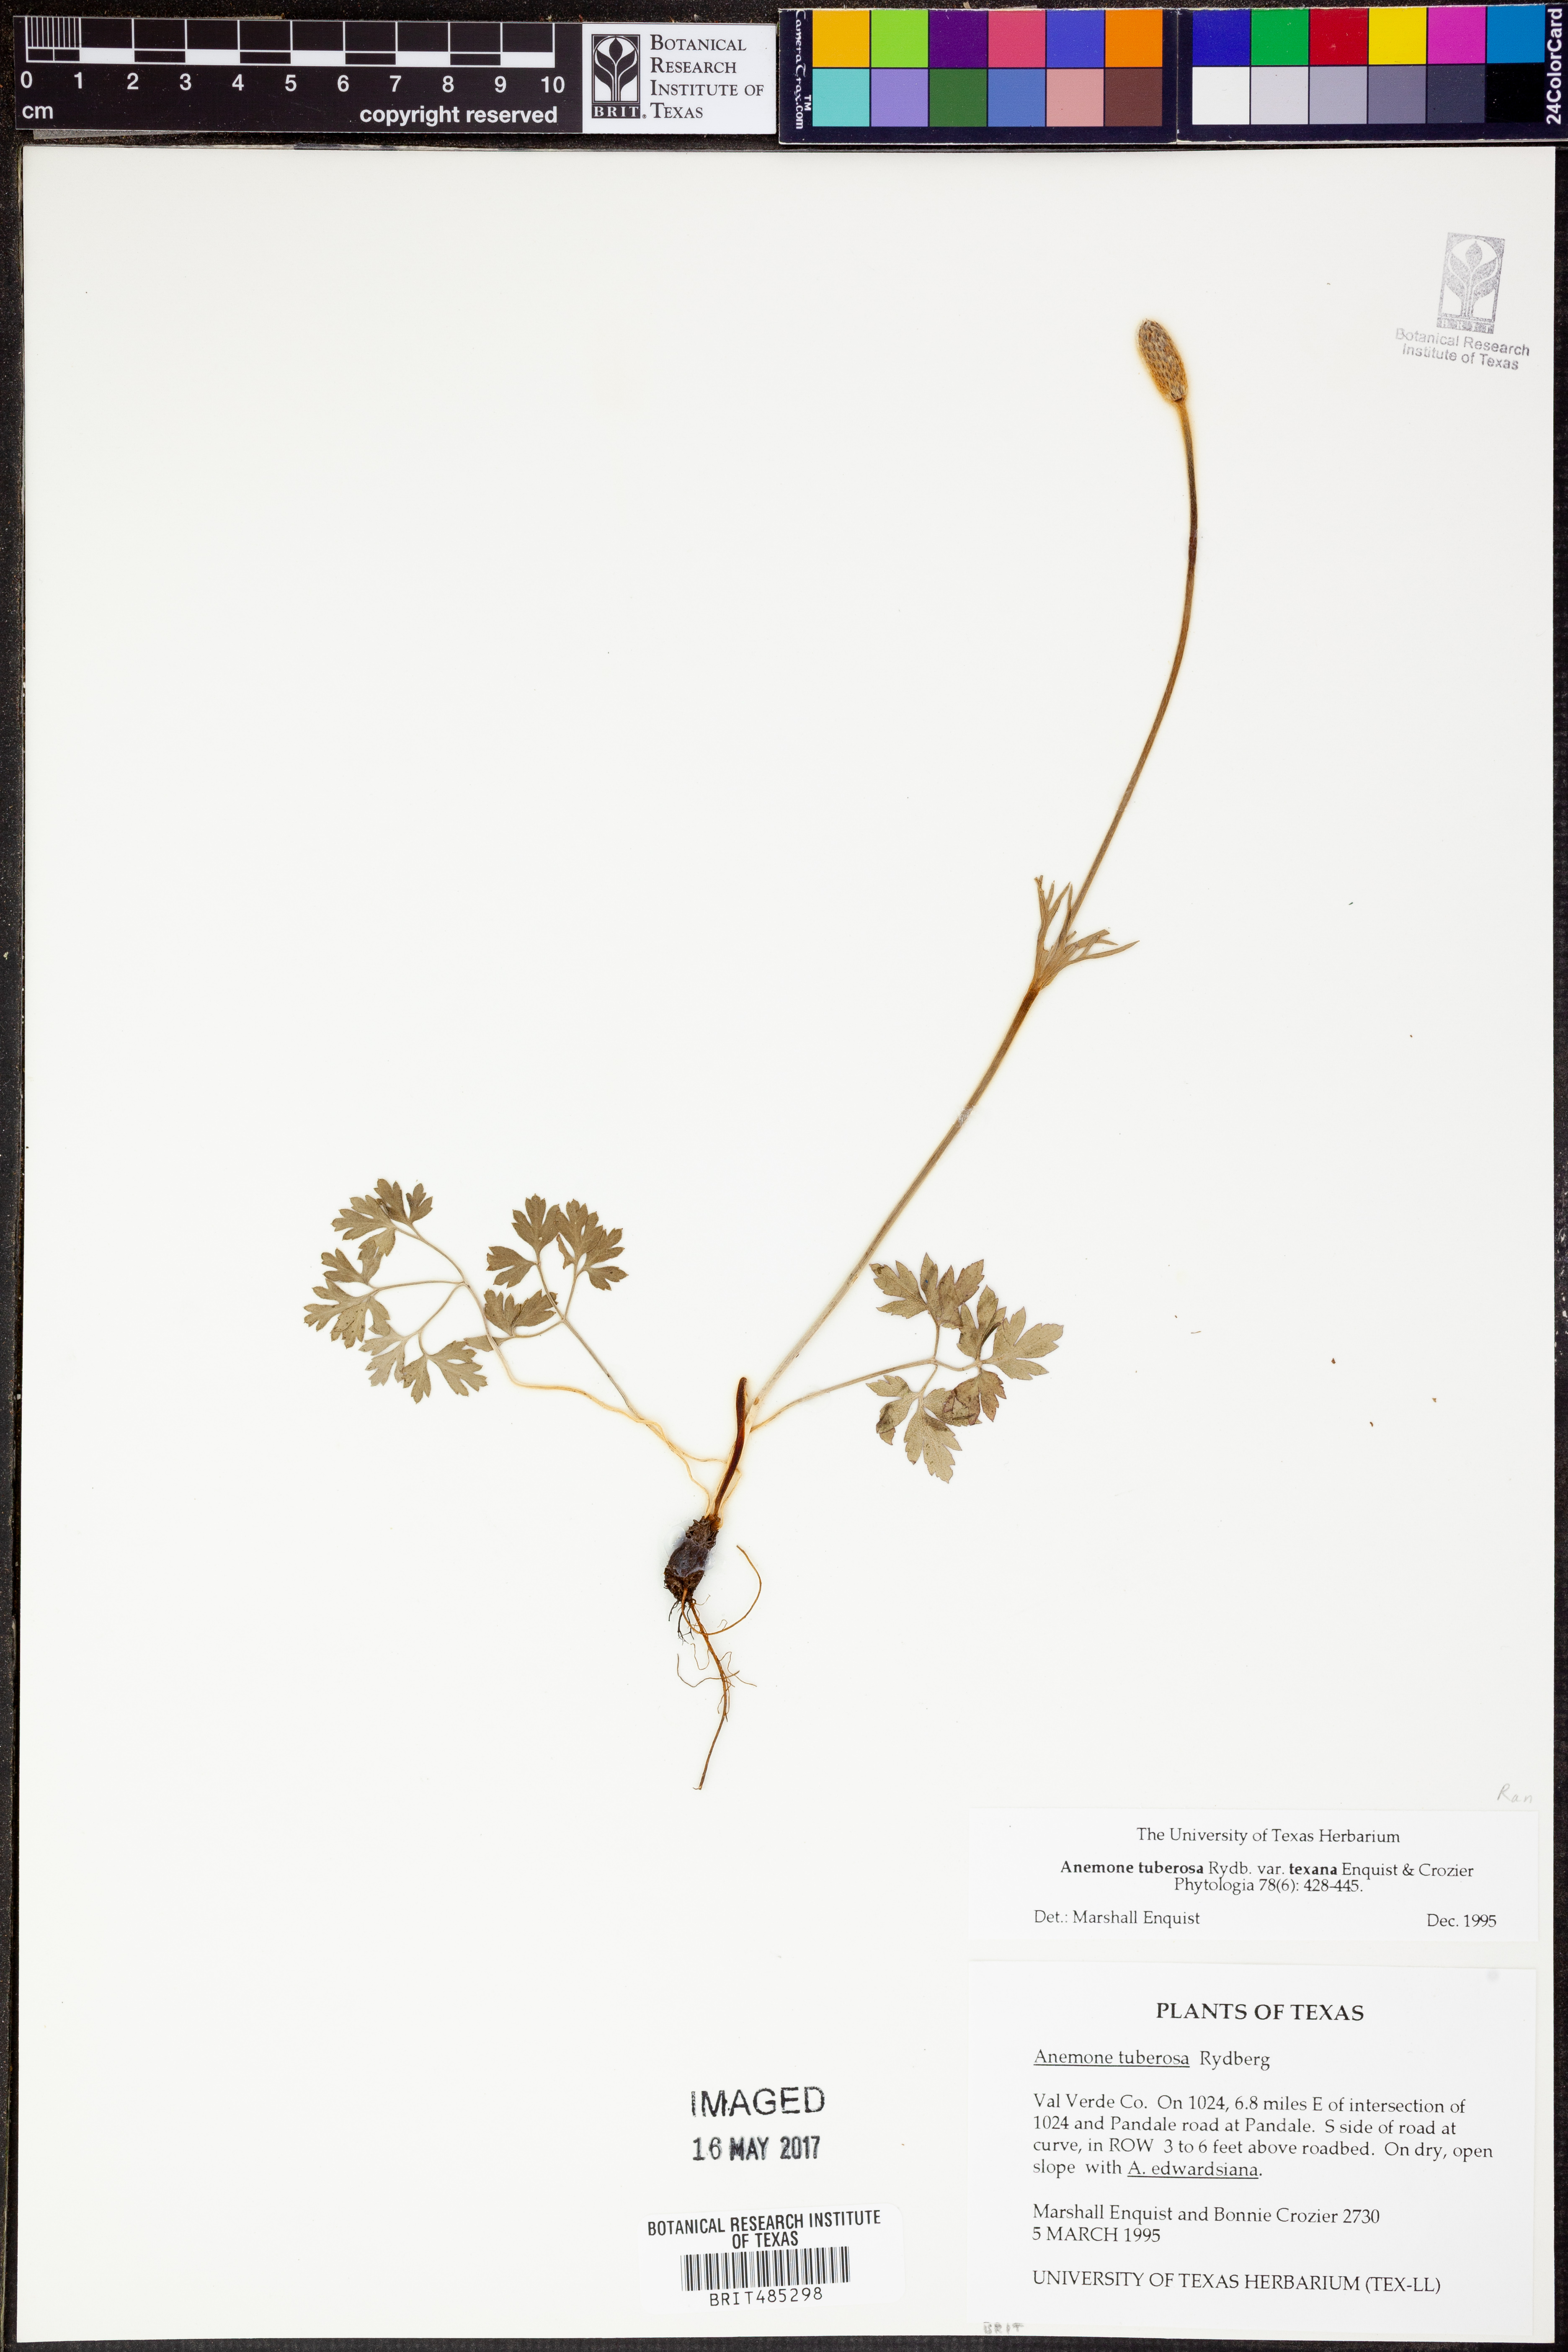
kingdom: Plantae
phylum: Tracheophyta
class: Magnoliopsida
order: Ranunculales
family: Ranunculaceae
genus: Anemone
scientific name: Anemone tuberosa
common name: Desert anemone
